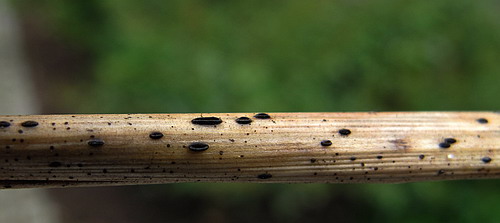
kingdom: Fungi
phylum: Ascomycota
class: Leotiomycetes
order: Rhytismatales
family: Rhytismataceae
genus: Lophodermium
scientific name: Lophodermium arundinaceum
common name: almindelig fureplet
